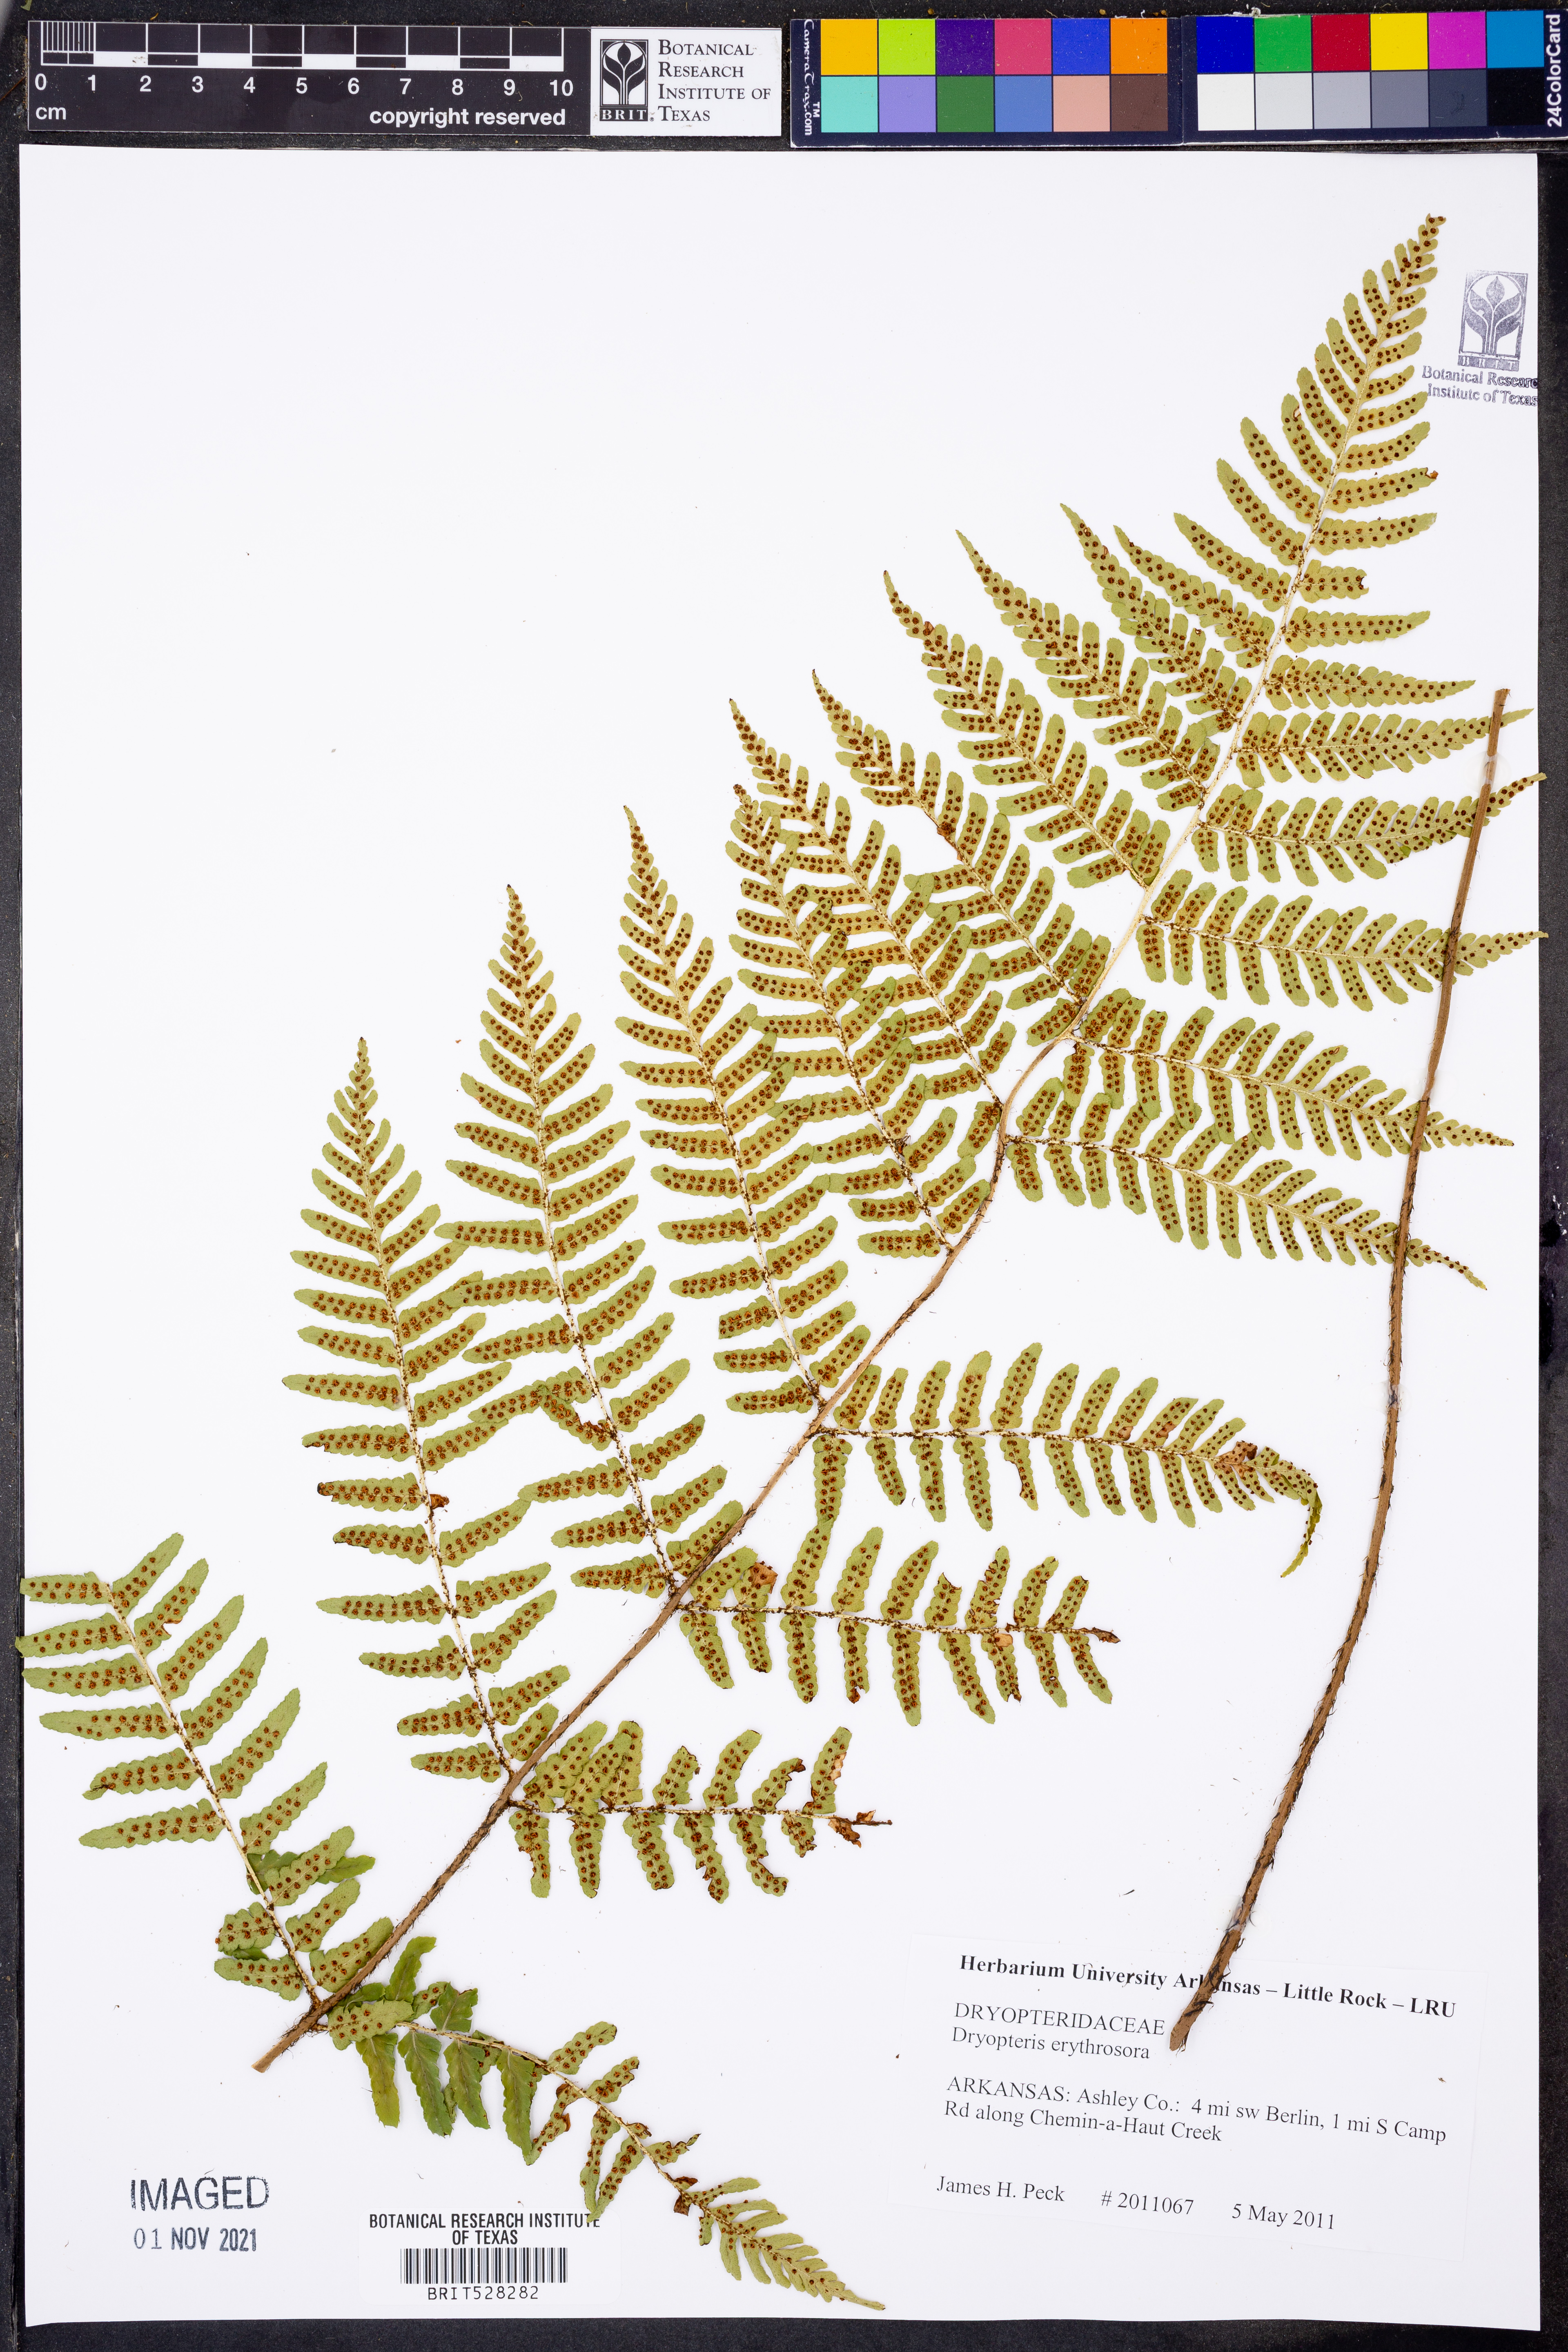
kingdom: Plantae
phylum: Tracheophyta
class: Polypodiopsida
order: Polypodiales
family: Dryopteridaceae
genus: Dryopteris
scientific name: Dryopteris erythrosora
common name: Autumn fern
